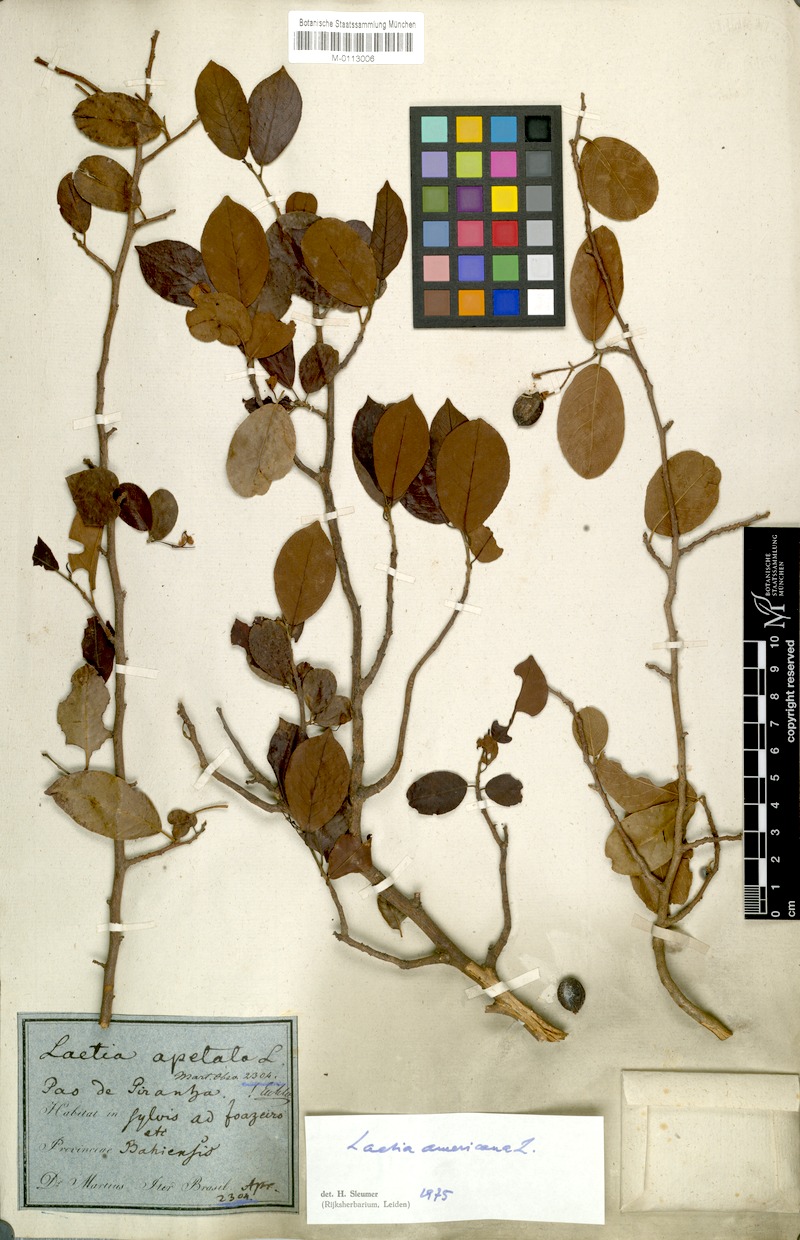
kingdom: Plantae
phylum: Tracheophyta
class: Magnoliopsida
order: Malpighiales
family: Salicaceae
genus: Casearia
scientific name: Casearia americana
